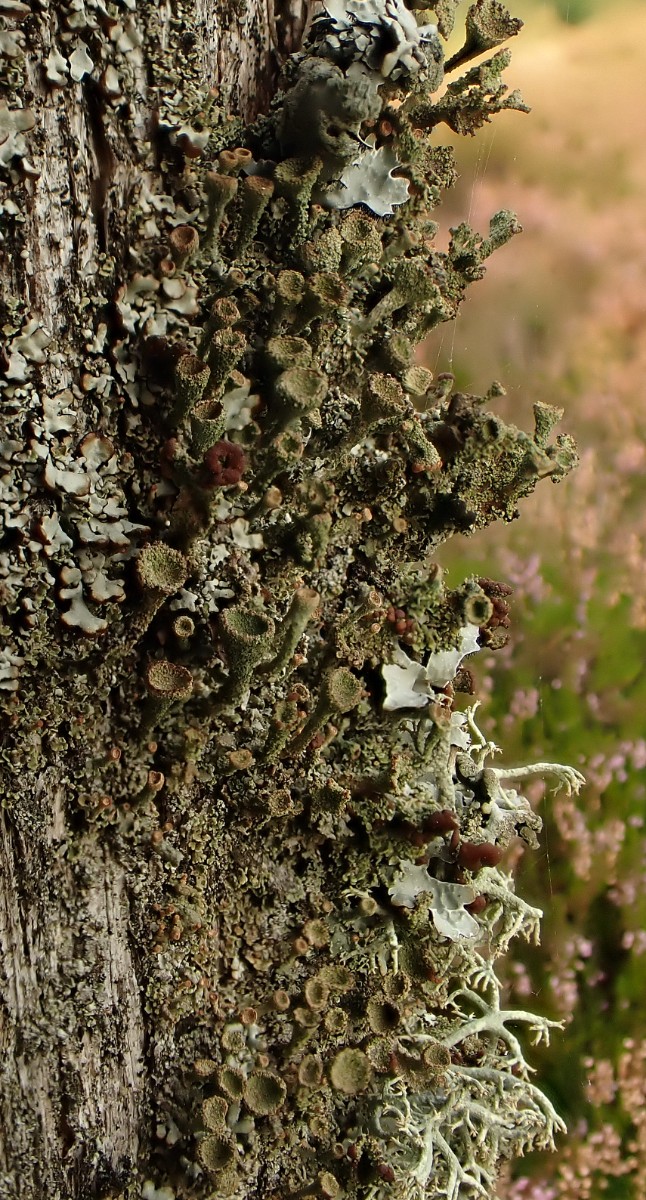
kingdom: Fungi
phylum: Ascomycota
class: Lecanoromycetes
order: Lecanorales
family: Cladoniaceae
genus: Cladonia
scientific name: Cladonia
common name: brungrøn bægerlav
